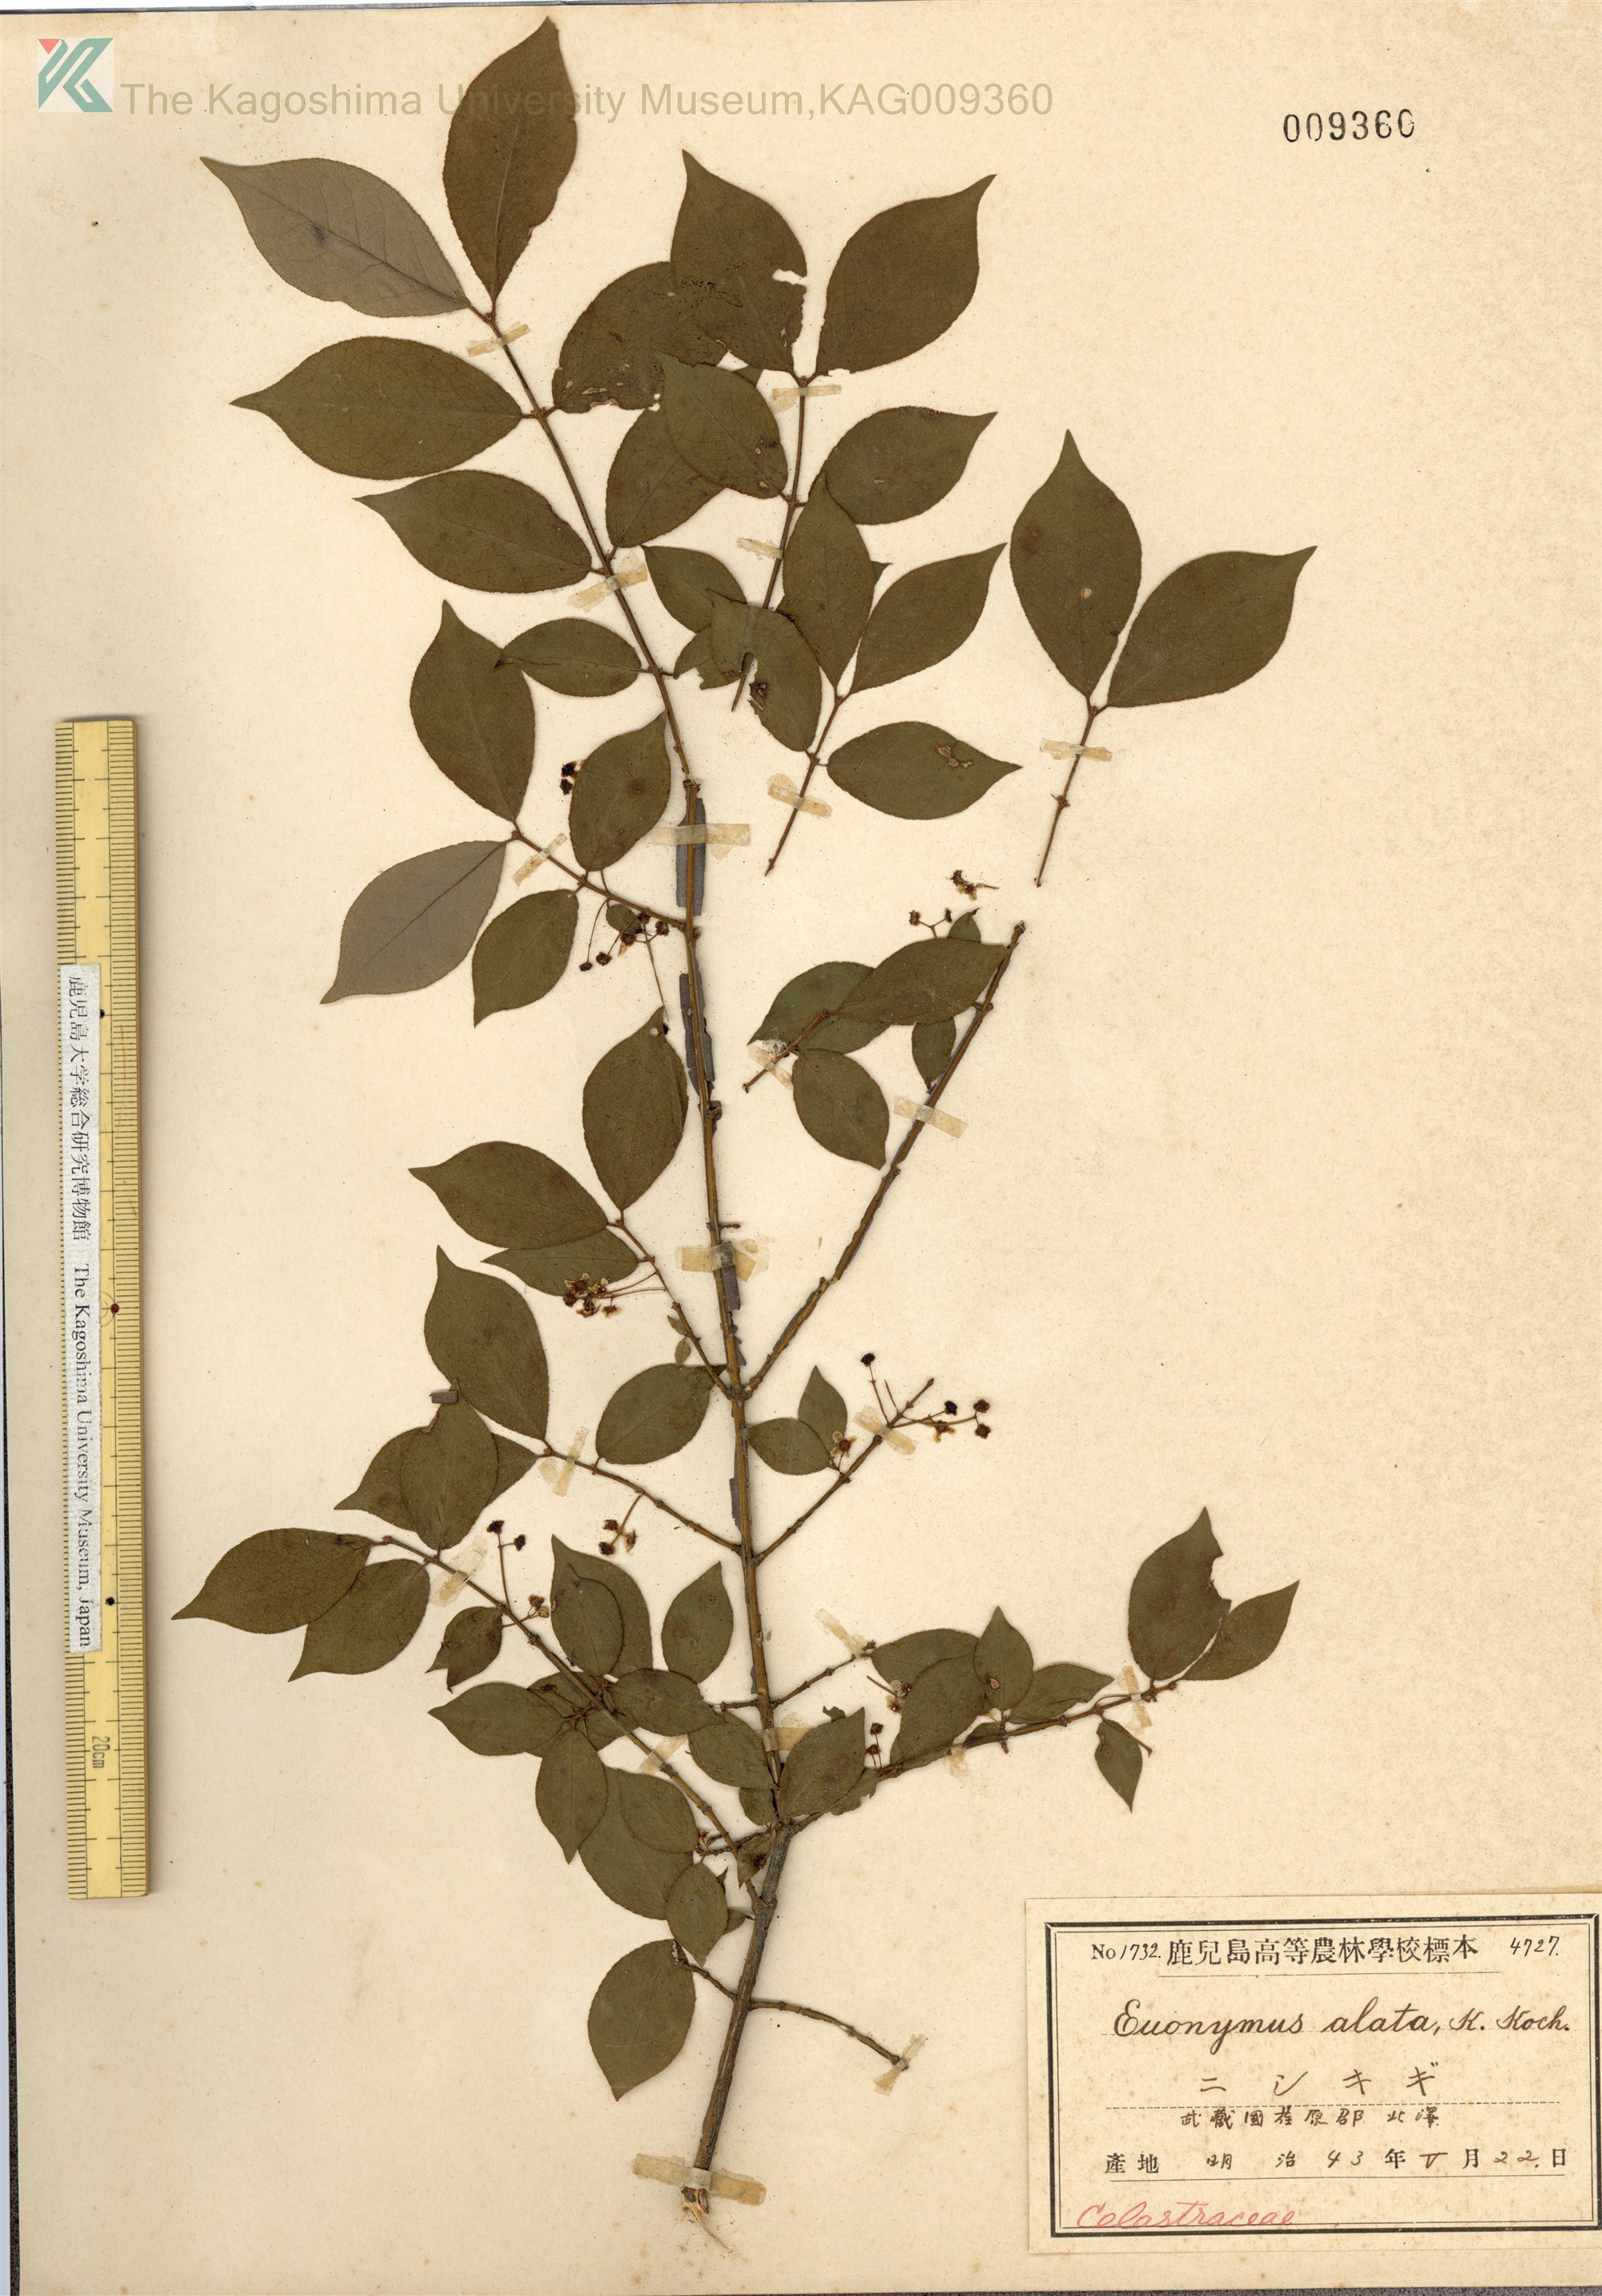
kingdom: Plantae
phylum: Tracheophyta
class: Magnoliopsida
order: Celastrales
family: Celastraceae
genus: Euonymus
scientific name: Euonymus alatus
